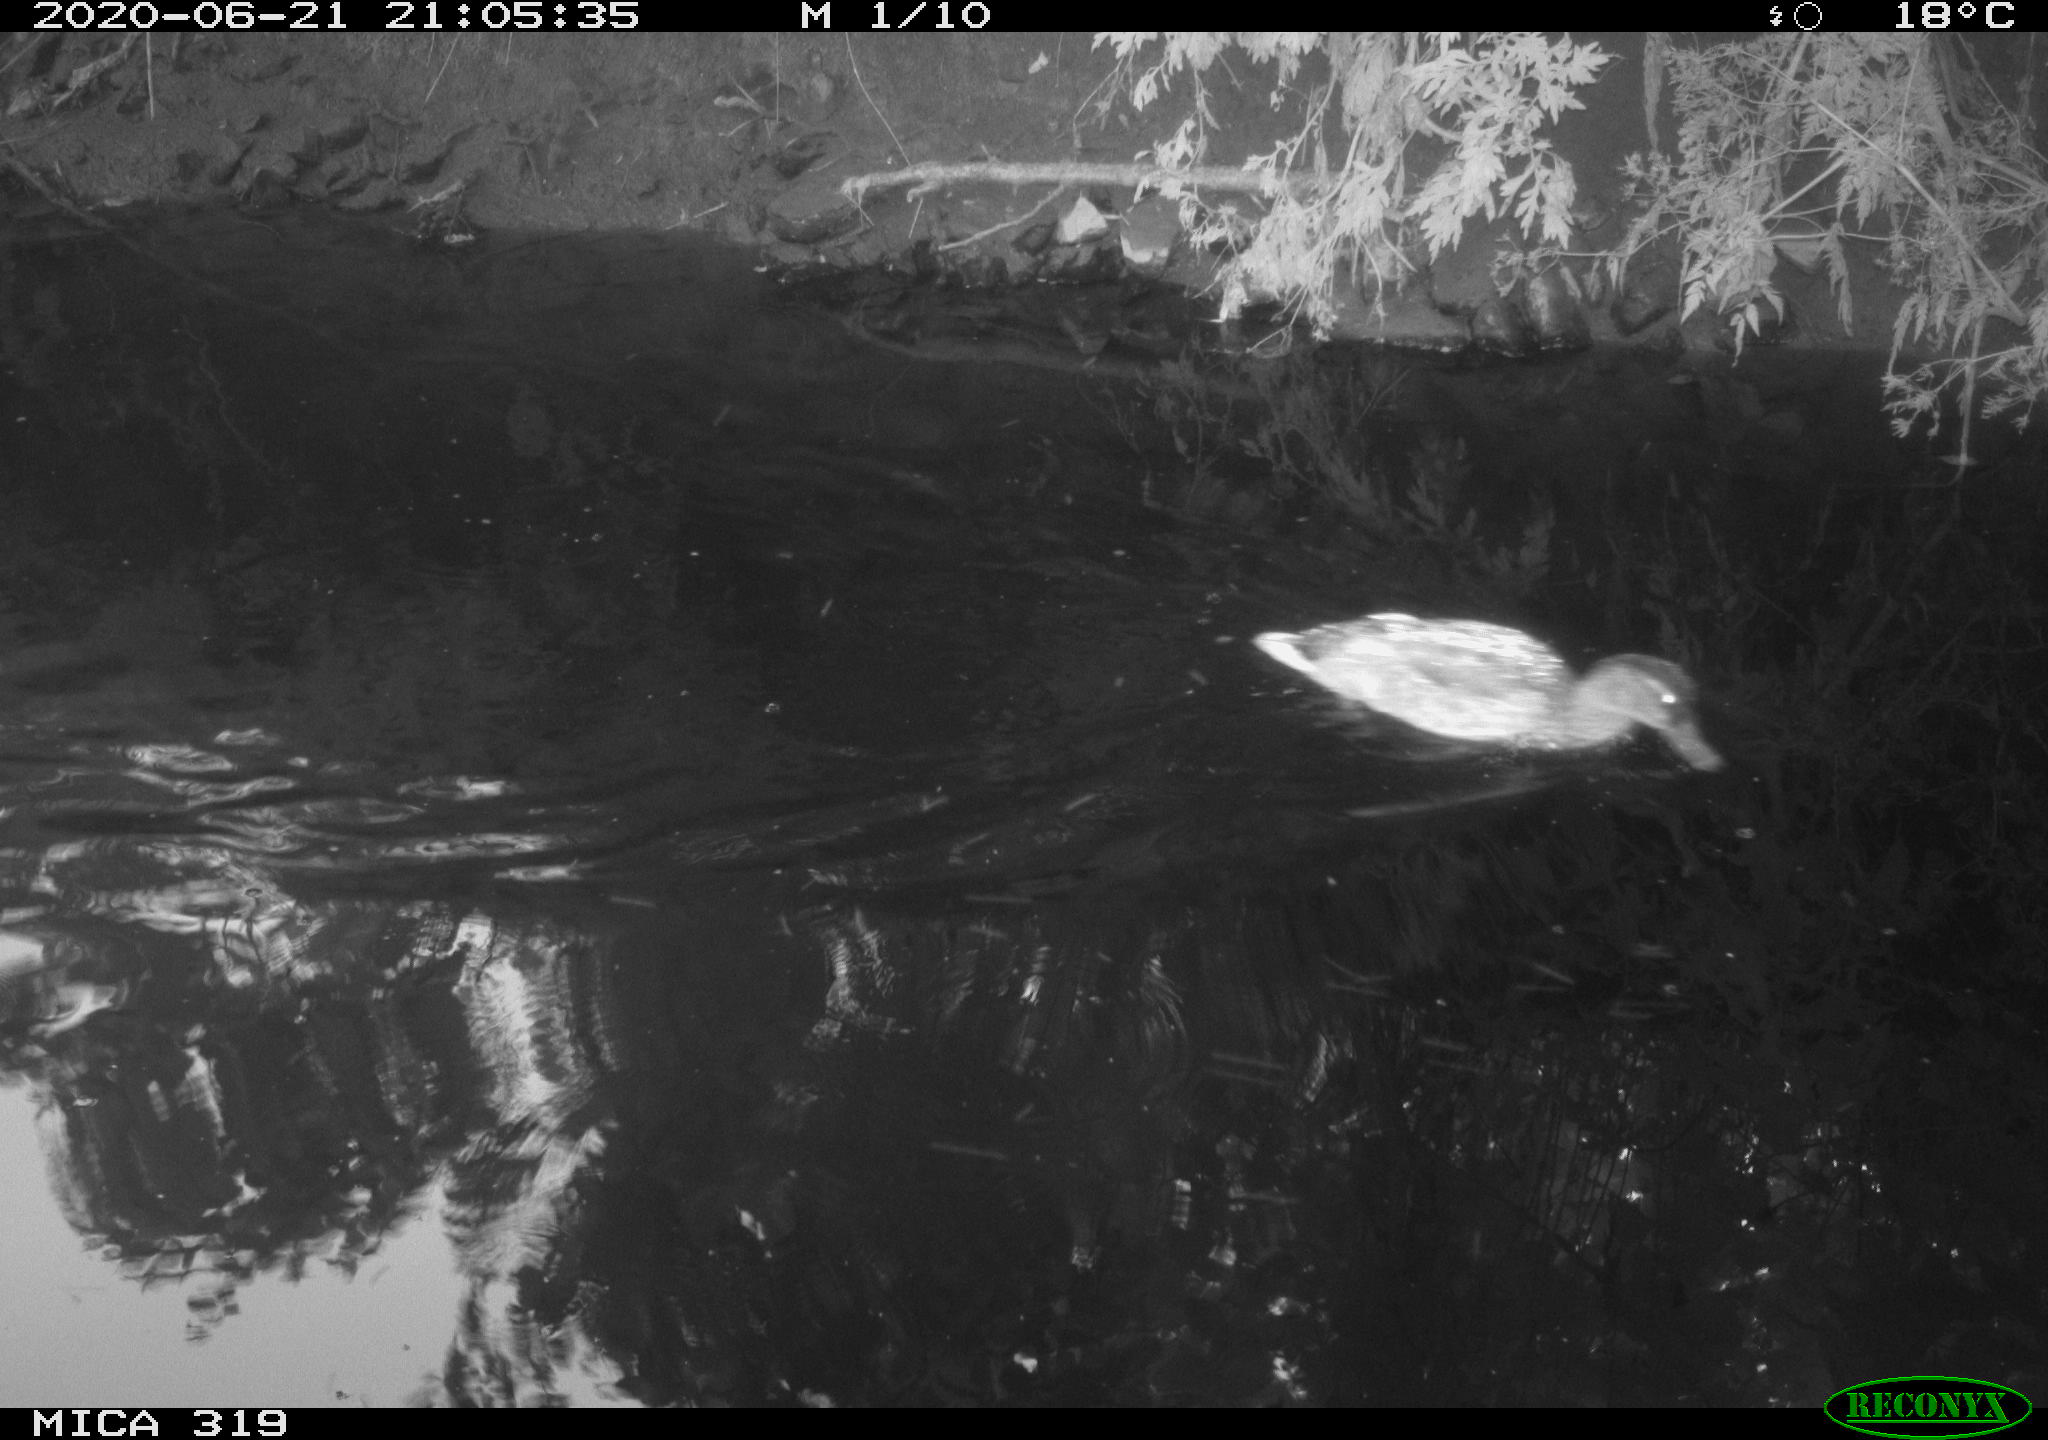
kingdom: Animalia
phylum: Chordata
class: Aves
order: Anseriformes
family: Anatidae
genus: Anas
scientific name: Anas platyrhynchos
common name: Mallard
